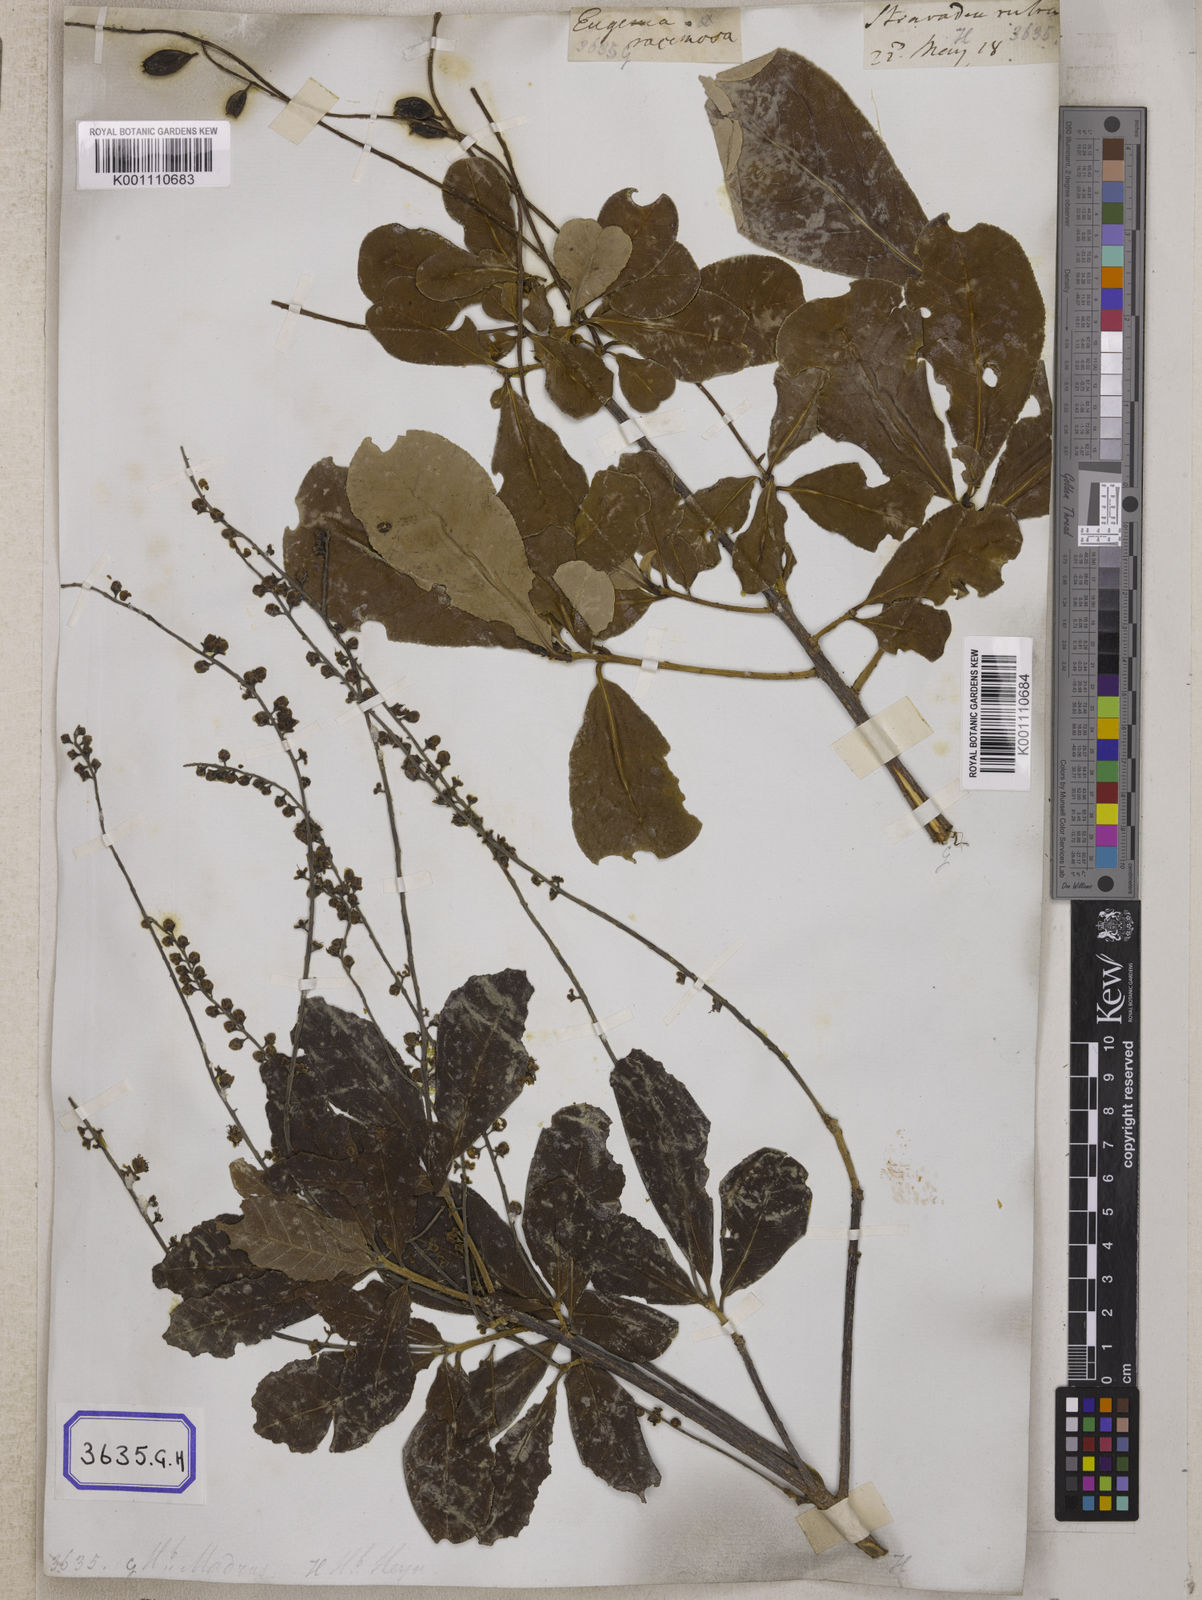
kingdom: Plantae
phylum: Tracheophyta
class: Magnoliopsida
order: Ericales
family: Lecythidaceae
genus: Barringtonia
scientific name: Barringtonia acutangula
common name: Freshwater mangrove
